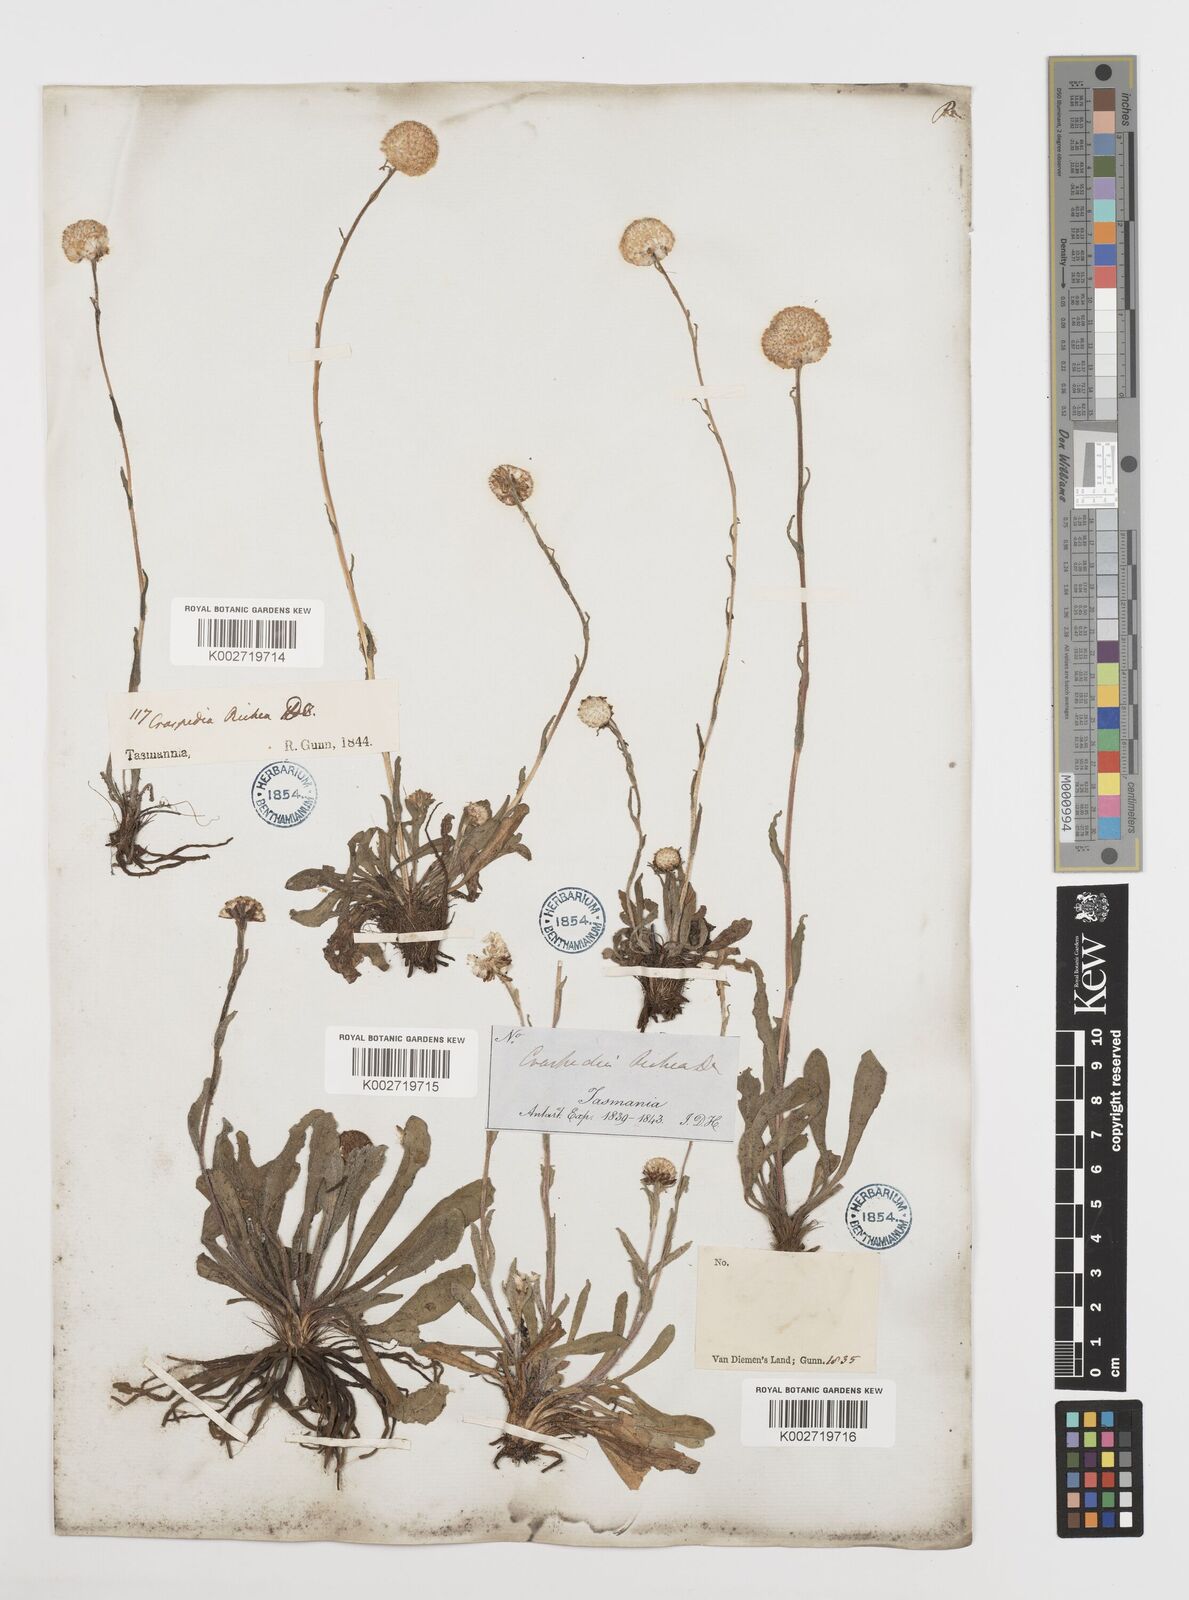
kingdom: Plantae
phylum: Tracheophyta
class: Magnoliopsida
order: Asterales
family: Asteraceae
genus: Craspedia
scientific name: Craspedia glauca
